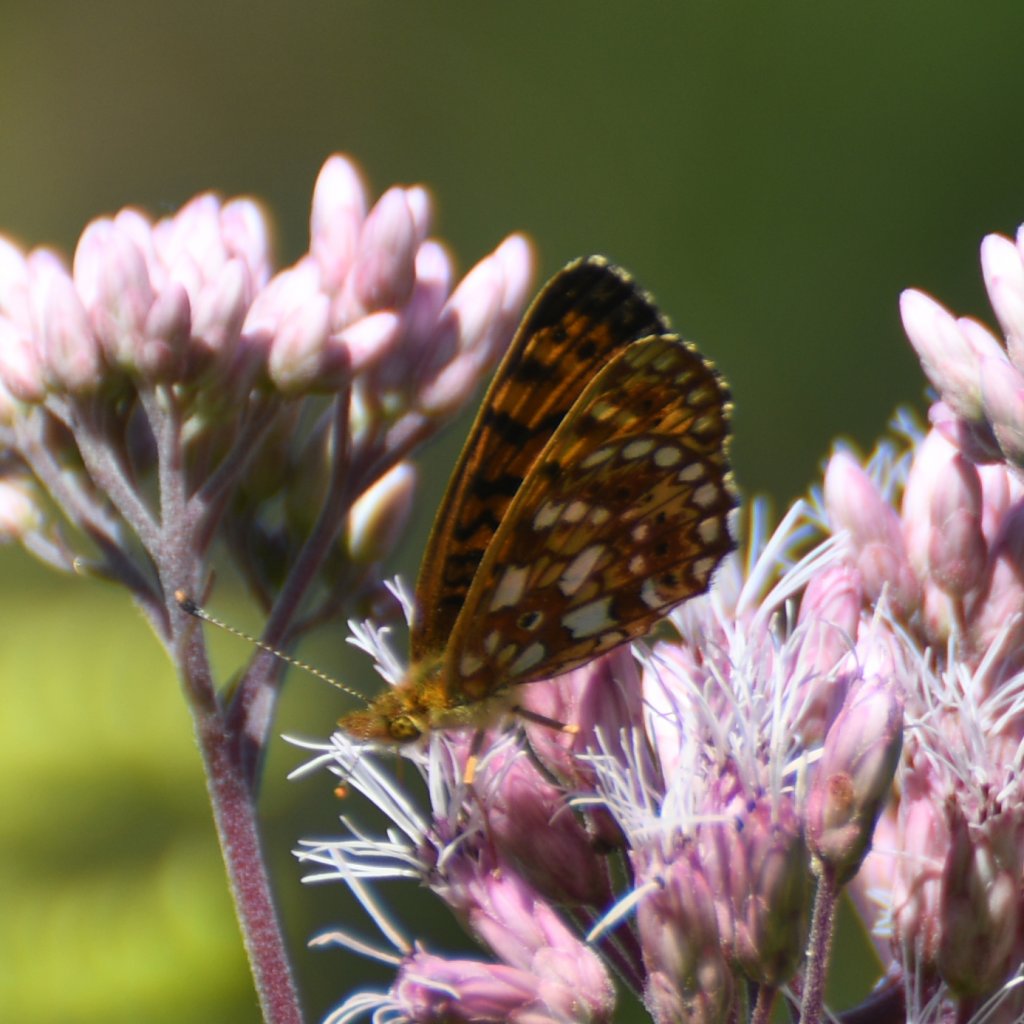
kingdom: Animalia
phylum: Arthropoda
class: Insecta
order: Lepidoptera
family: Nymphalidae
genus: Boloria
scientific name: Boloria selene
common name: Silver-bordered Fritillary
